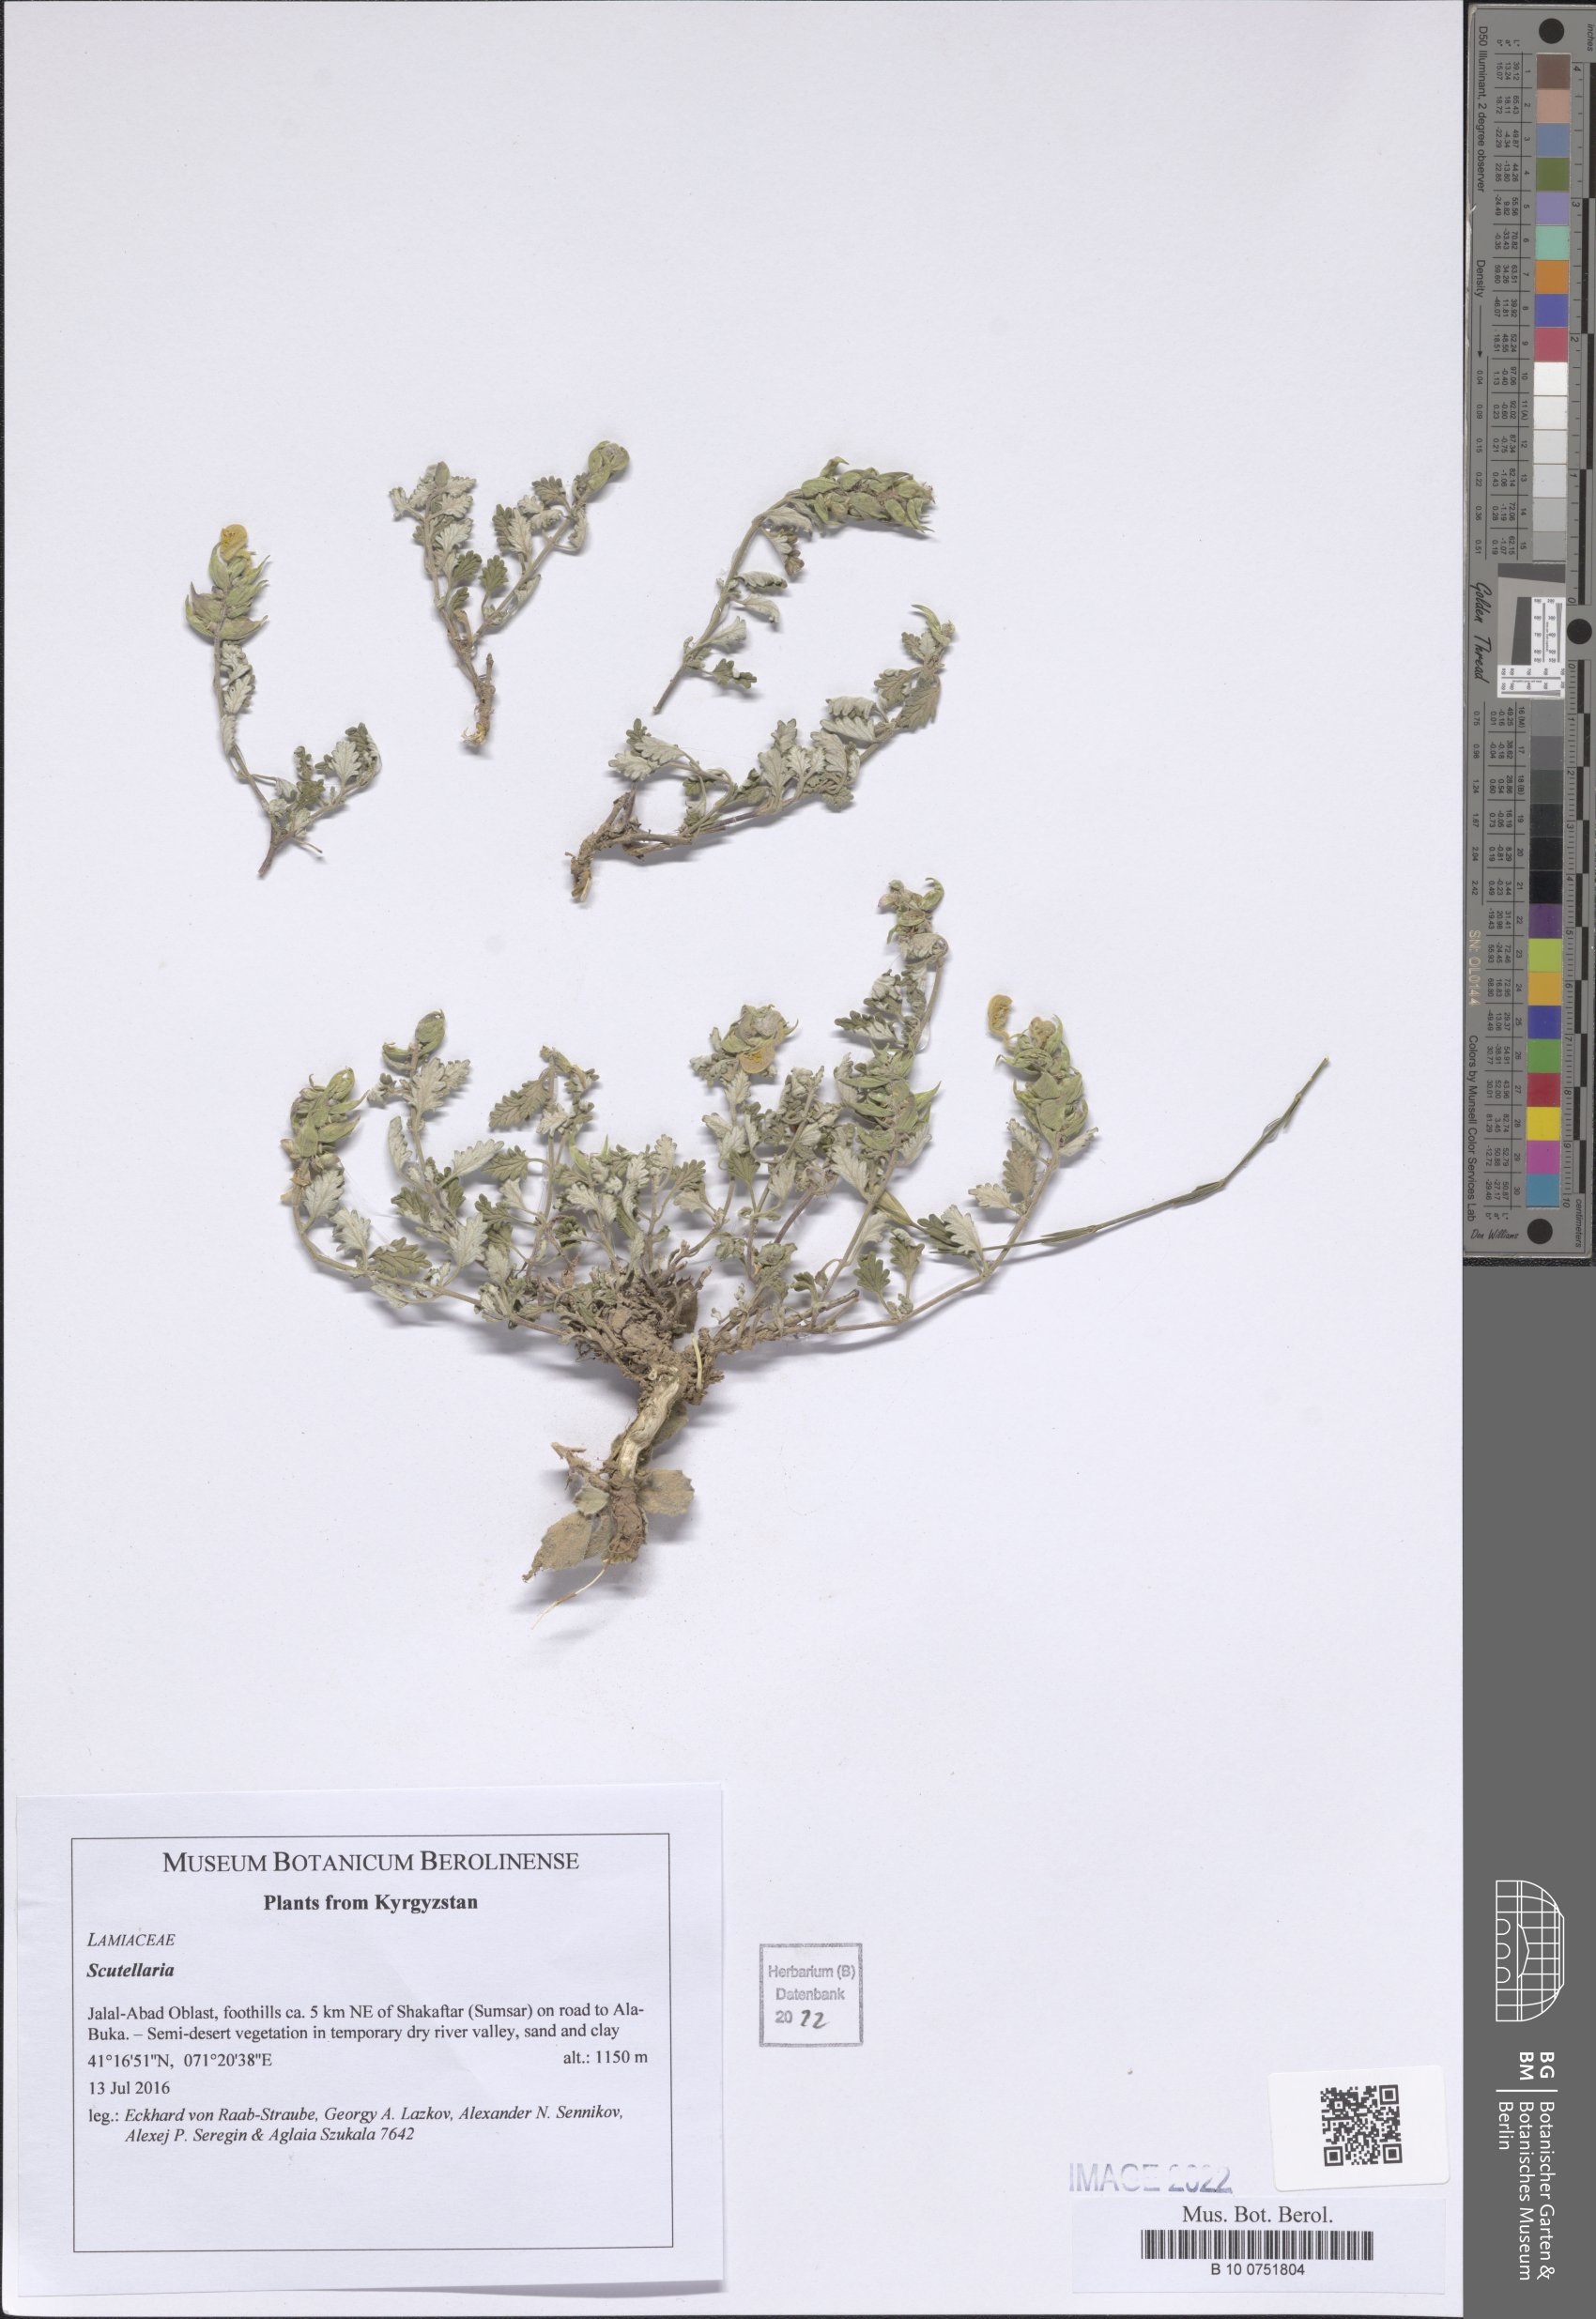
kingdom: Plantae
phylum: Tracheophyta
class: Magnoliopsida
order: Lamiales
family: Lamiaceae
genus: Scutellaria
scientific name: Scutellaria
